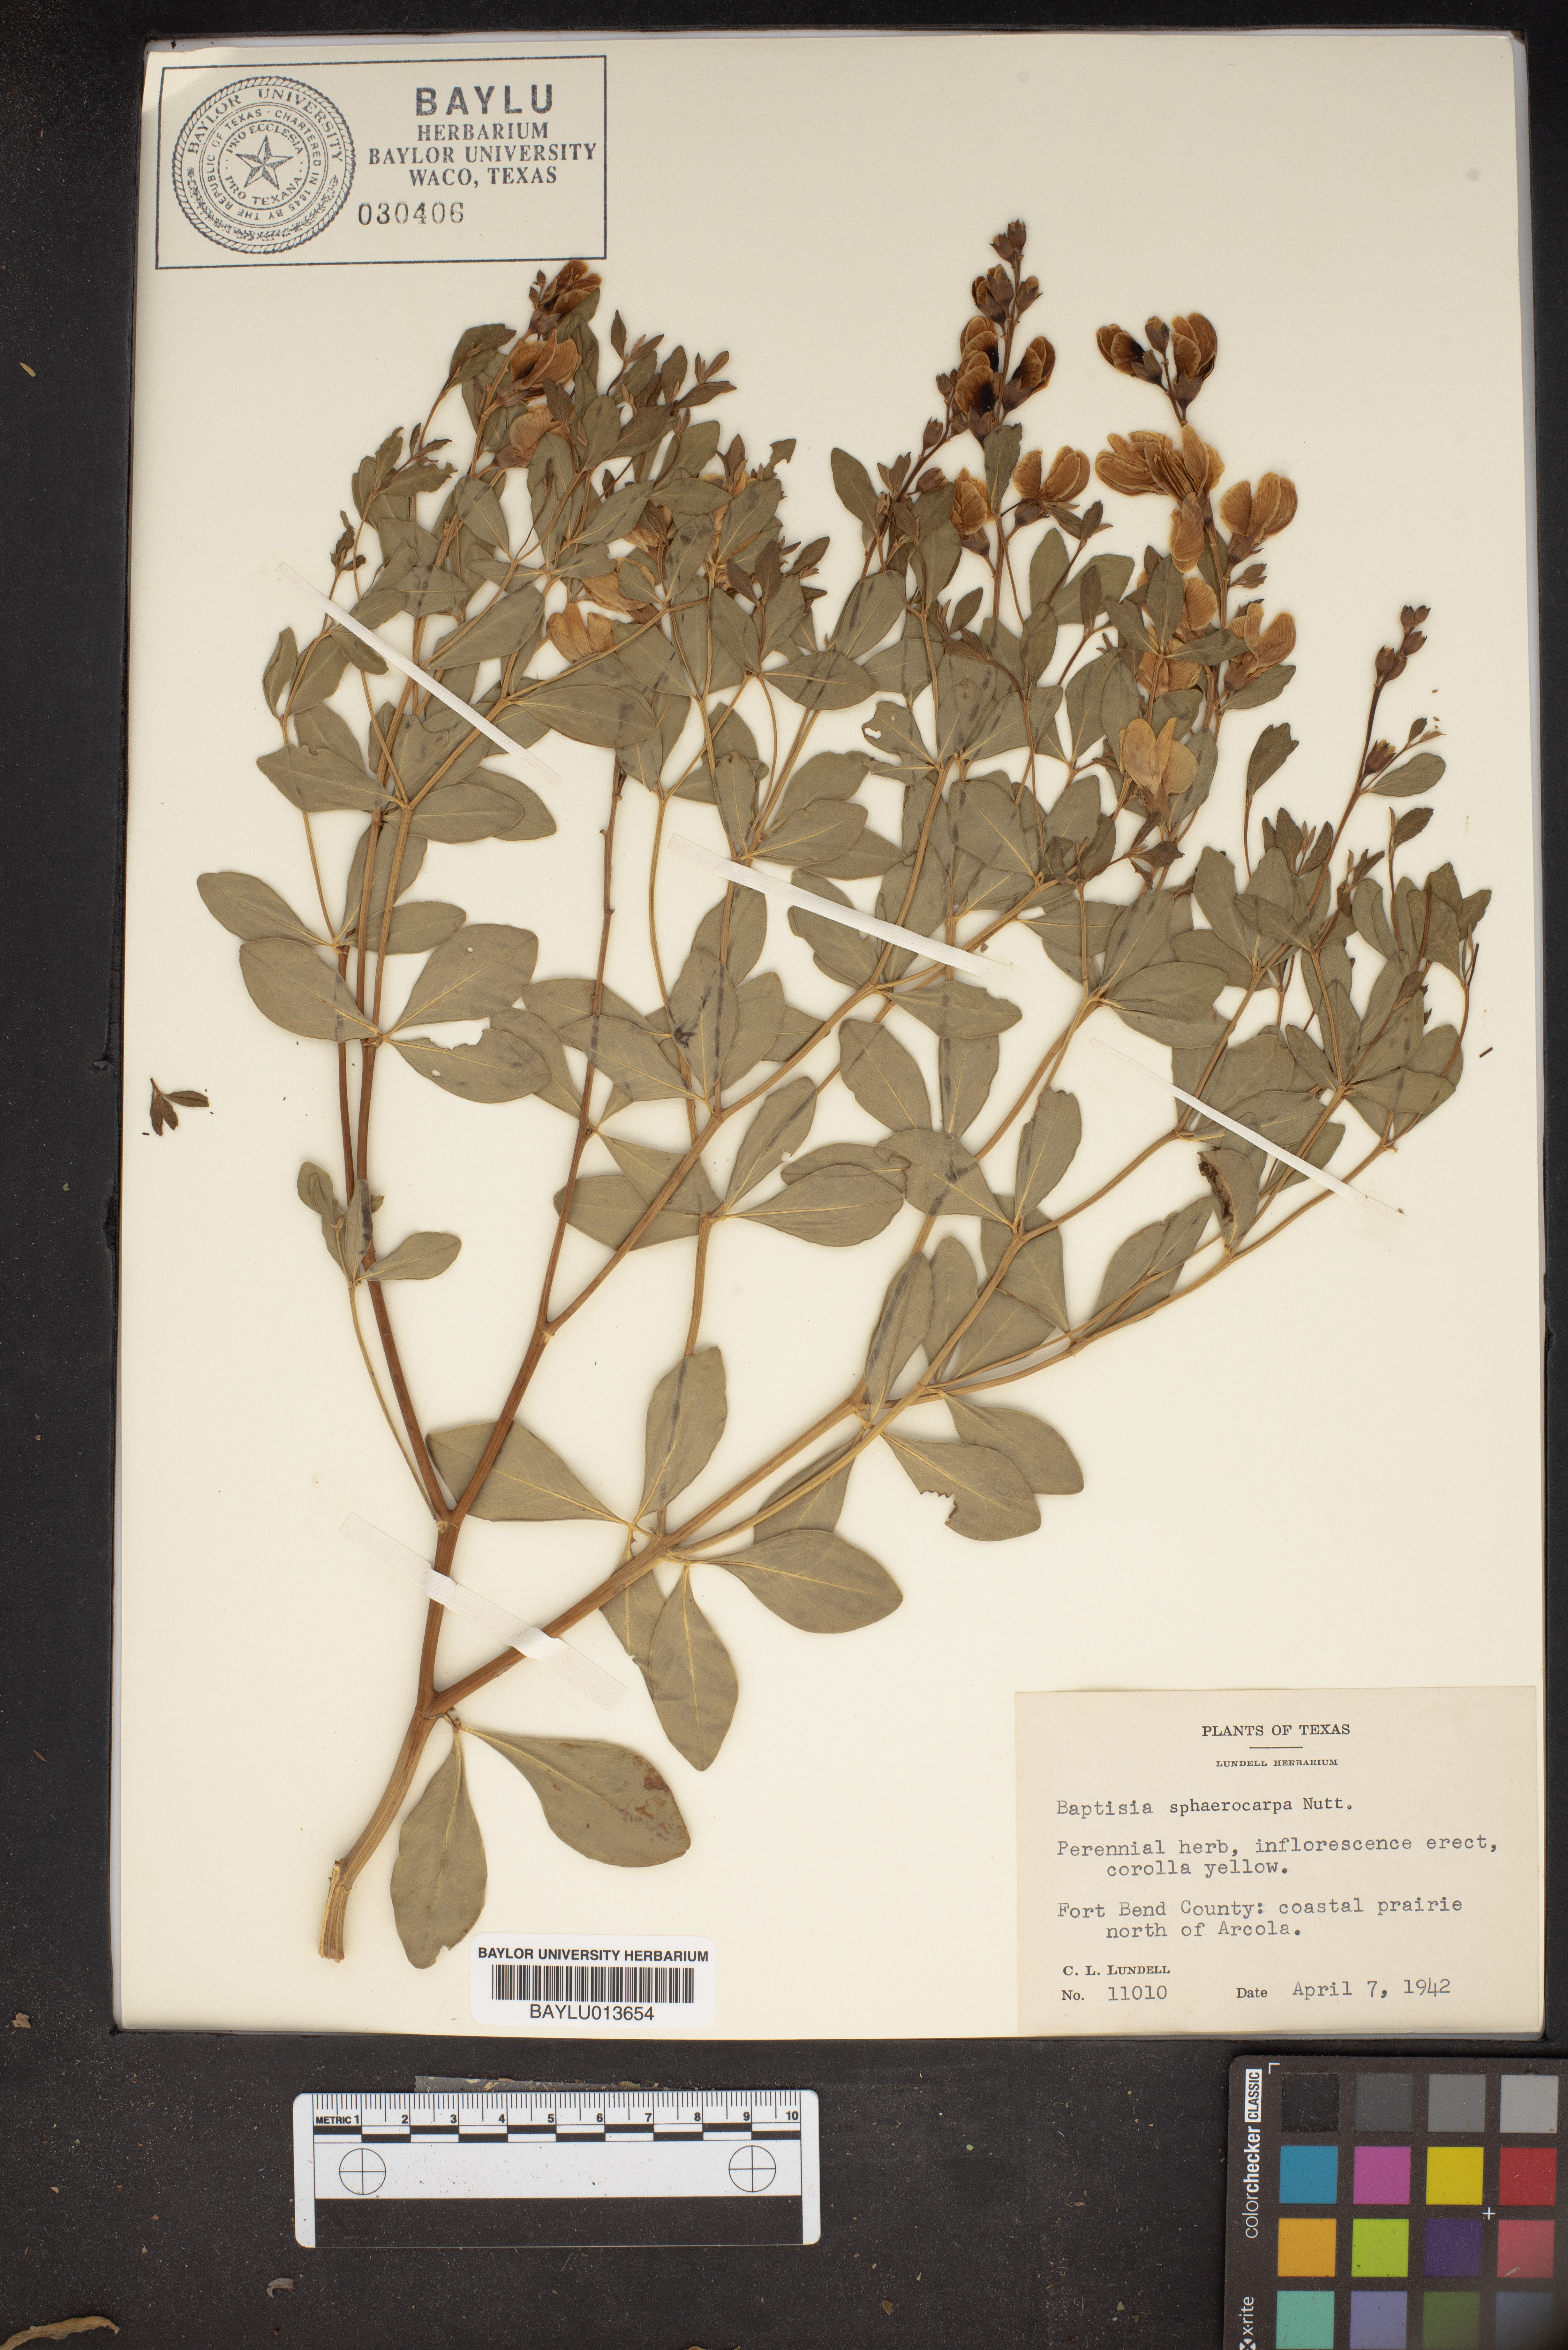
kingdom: Plantae
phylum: Tracheophyta
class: Magnoliopsida
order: Fabales
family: Fabaceae
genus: Baptisia
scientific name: Baptisia sphaerocarpa
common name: Round wild indigo
